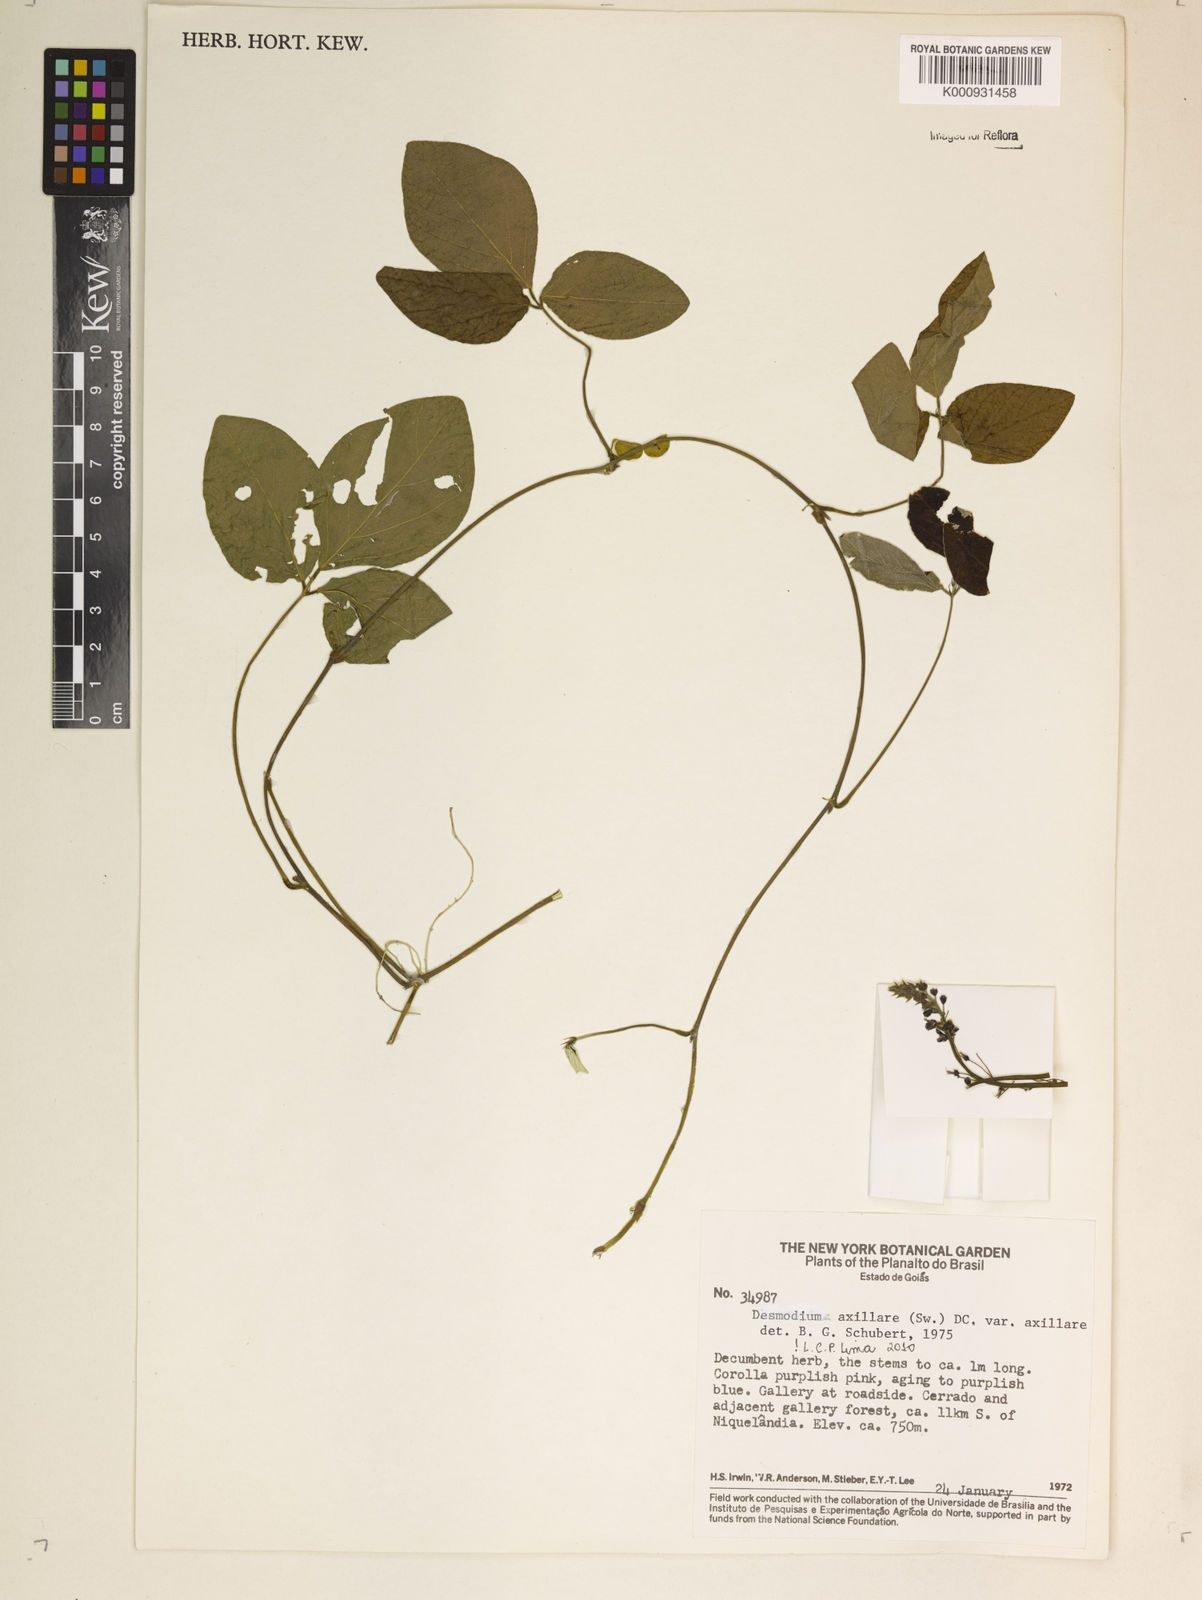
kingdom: Plantae
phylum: Tracheophyta
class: Magnoliopsida
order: Fabales
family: Fabaceae
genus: Desmodium
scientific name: Desmodium axillare
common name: Wire with
